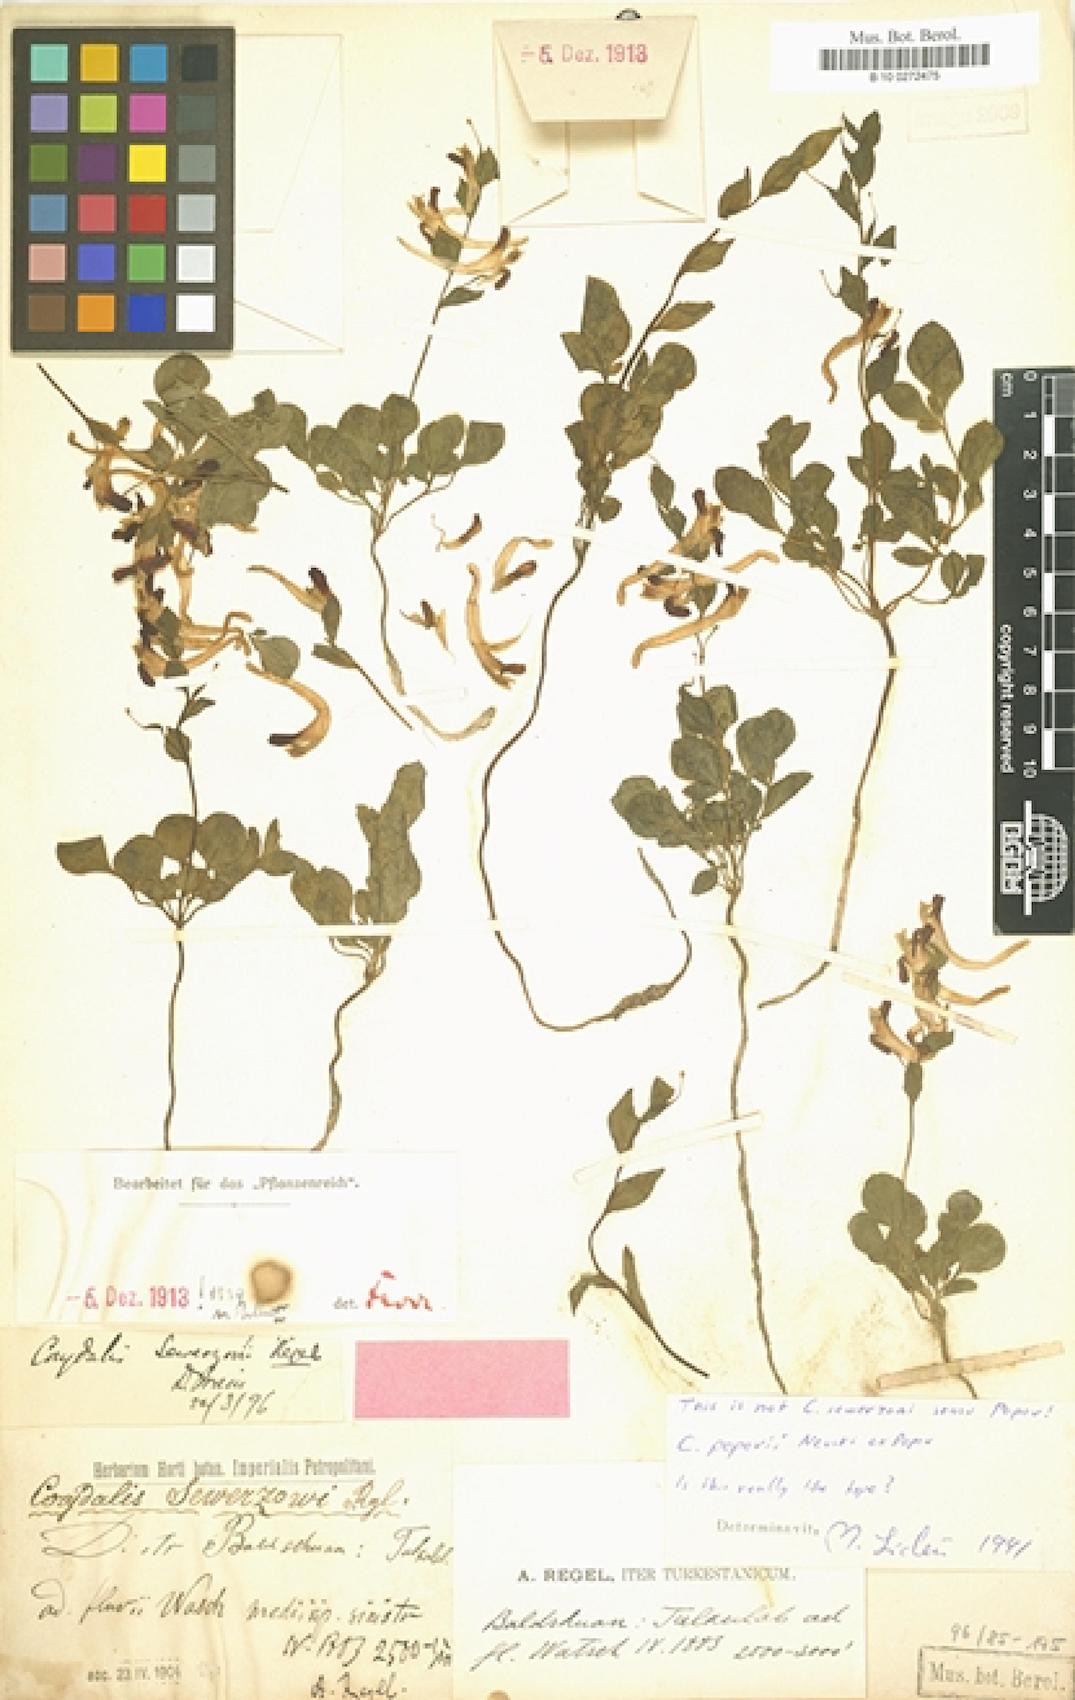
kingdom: Plantae
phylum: Tracheophyta
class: Magnoliopsida
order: Ranunculales
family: Papaveraceae
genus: Corydalis
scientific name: Corydalis popovii
